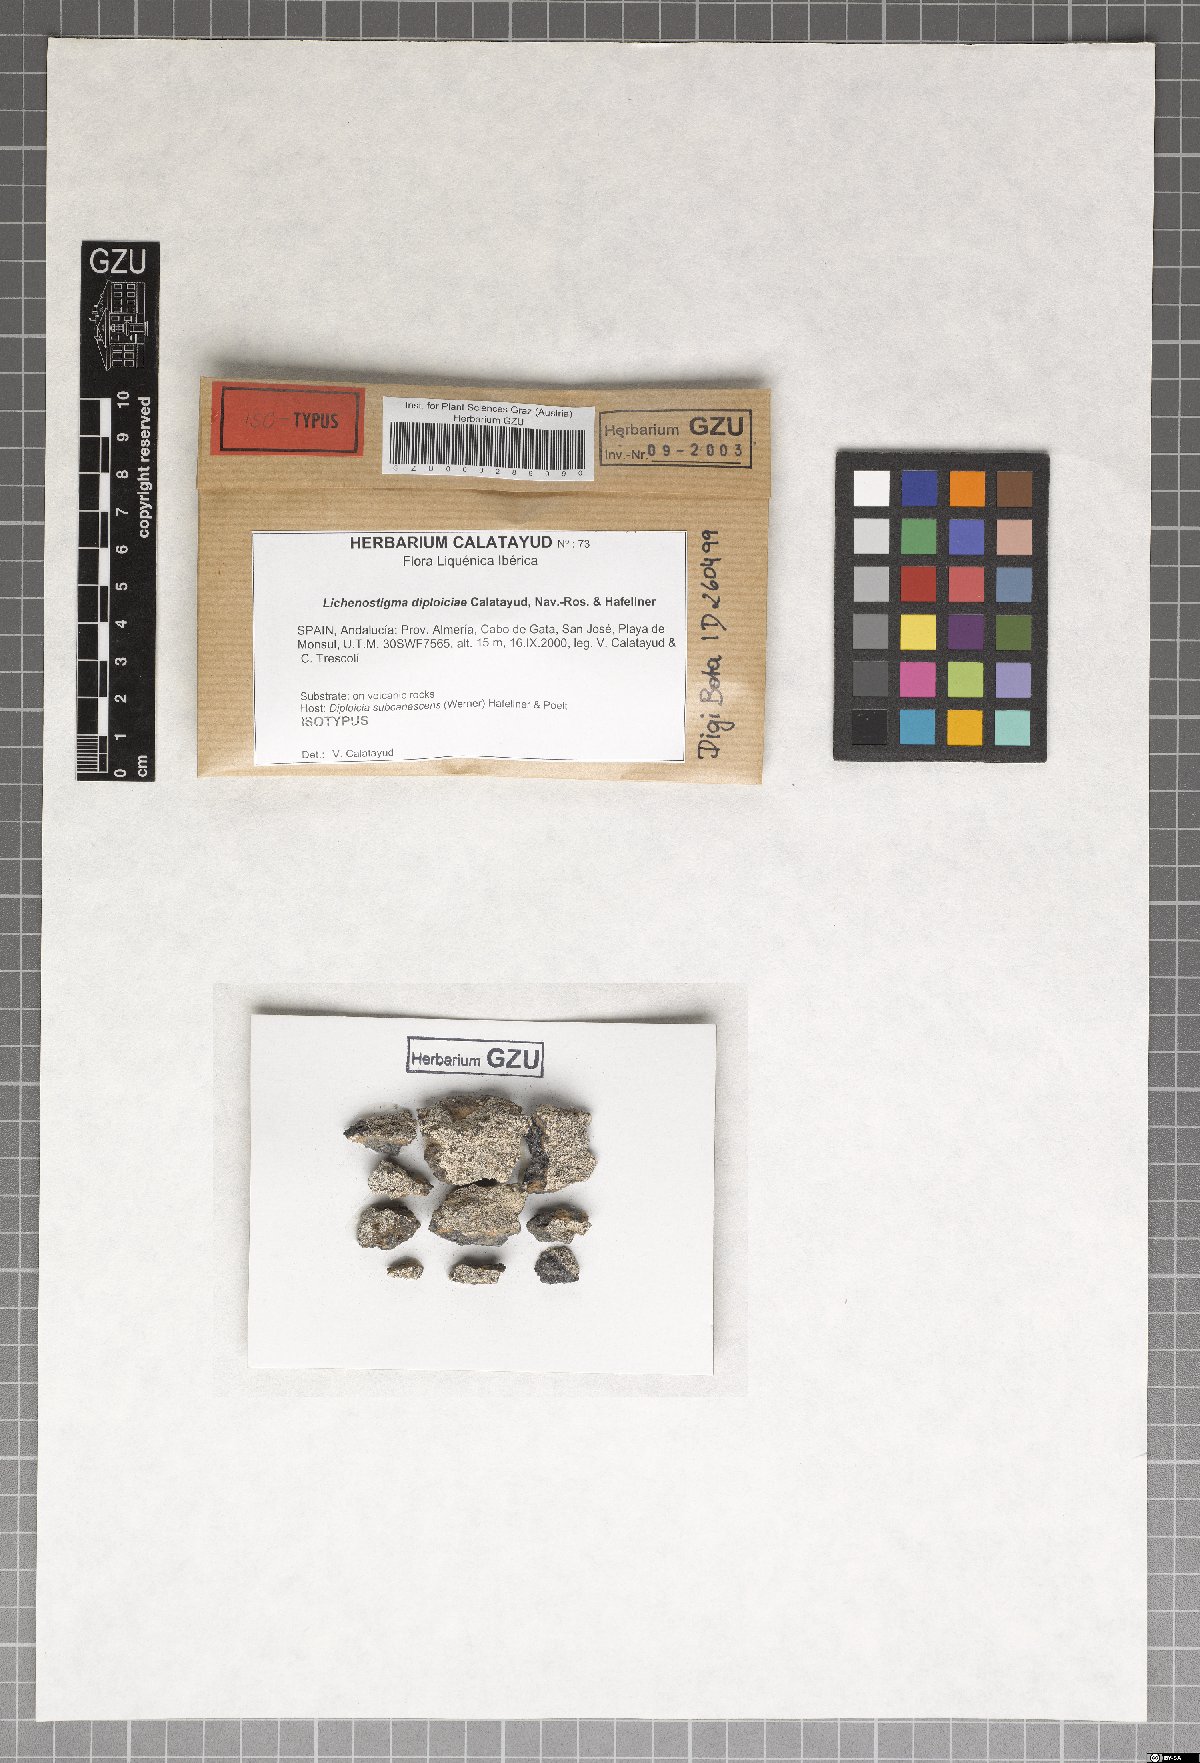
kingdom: Fungi
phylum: Ascomycota
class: Dothideomycetes
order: Lichenotheliales
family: Lichenotheliaceae
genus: Lichenostigma
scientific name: Lichenostigma dipliociae
